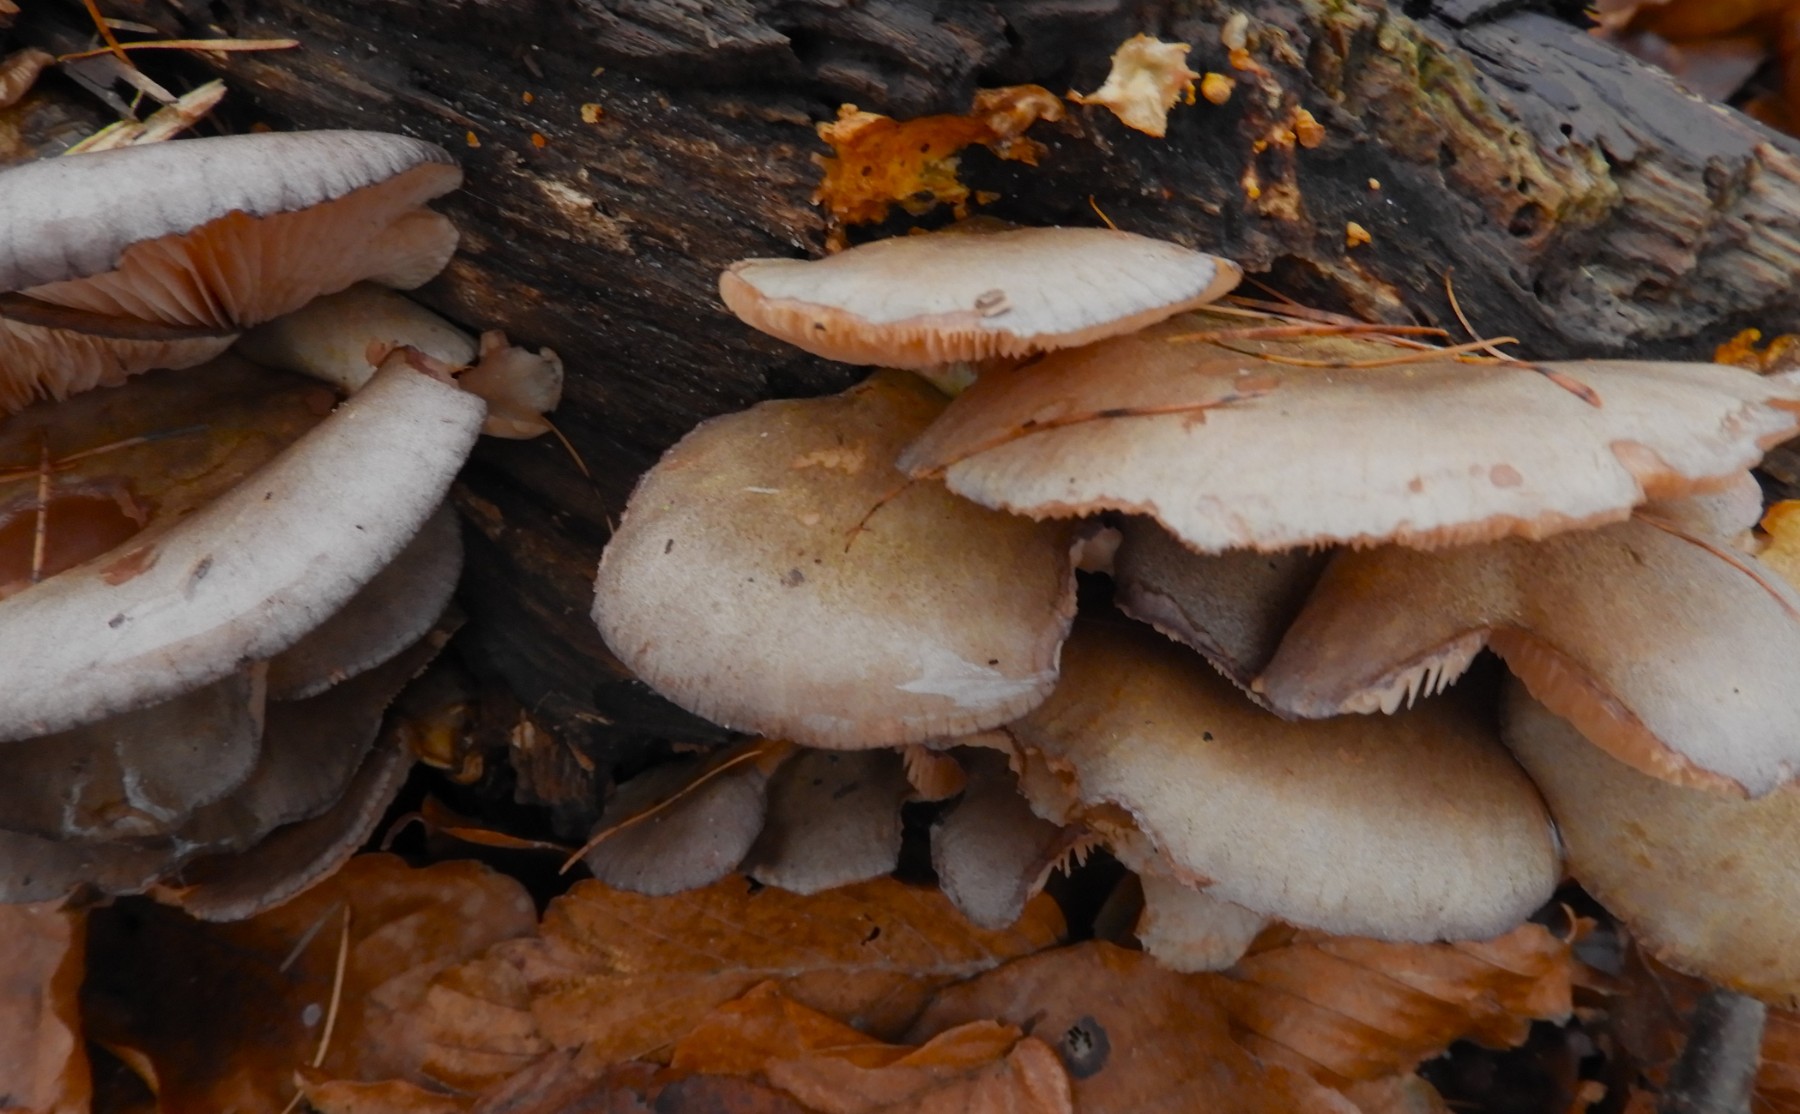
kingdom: Fungi
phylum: Basidiomycota
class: Agaricomycetes
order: Agaricales
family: Sarcomyxaceae
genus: Sarcomyxa
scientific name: Sarcomyxa serotina
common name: gummihat
